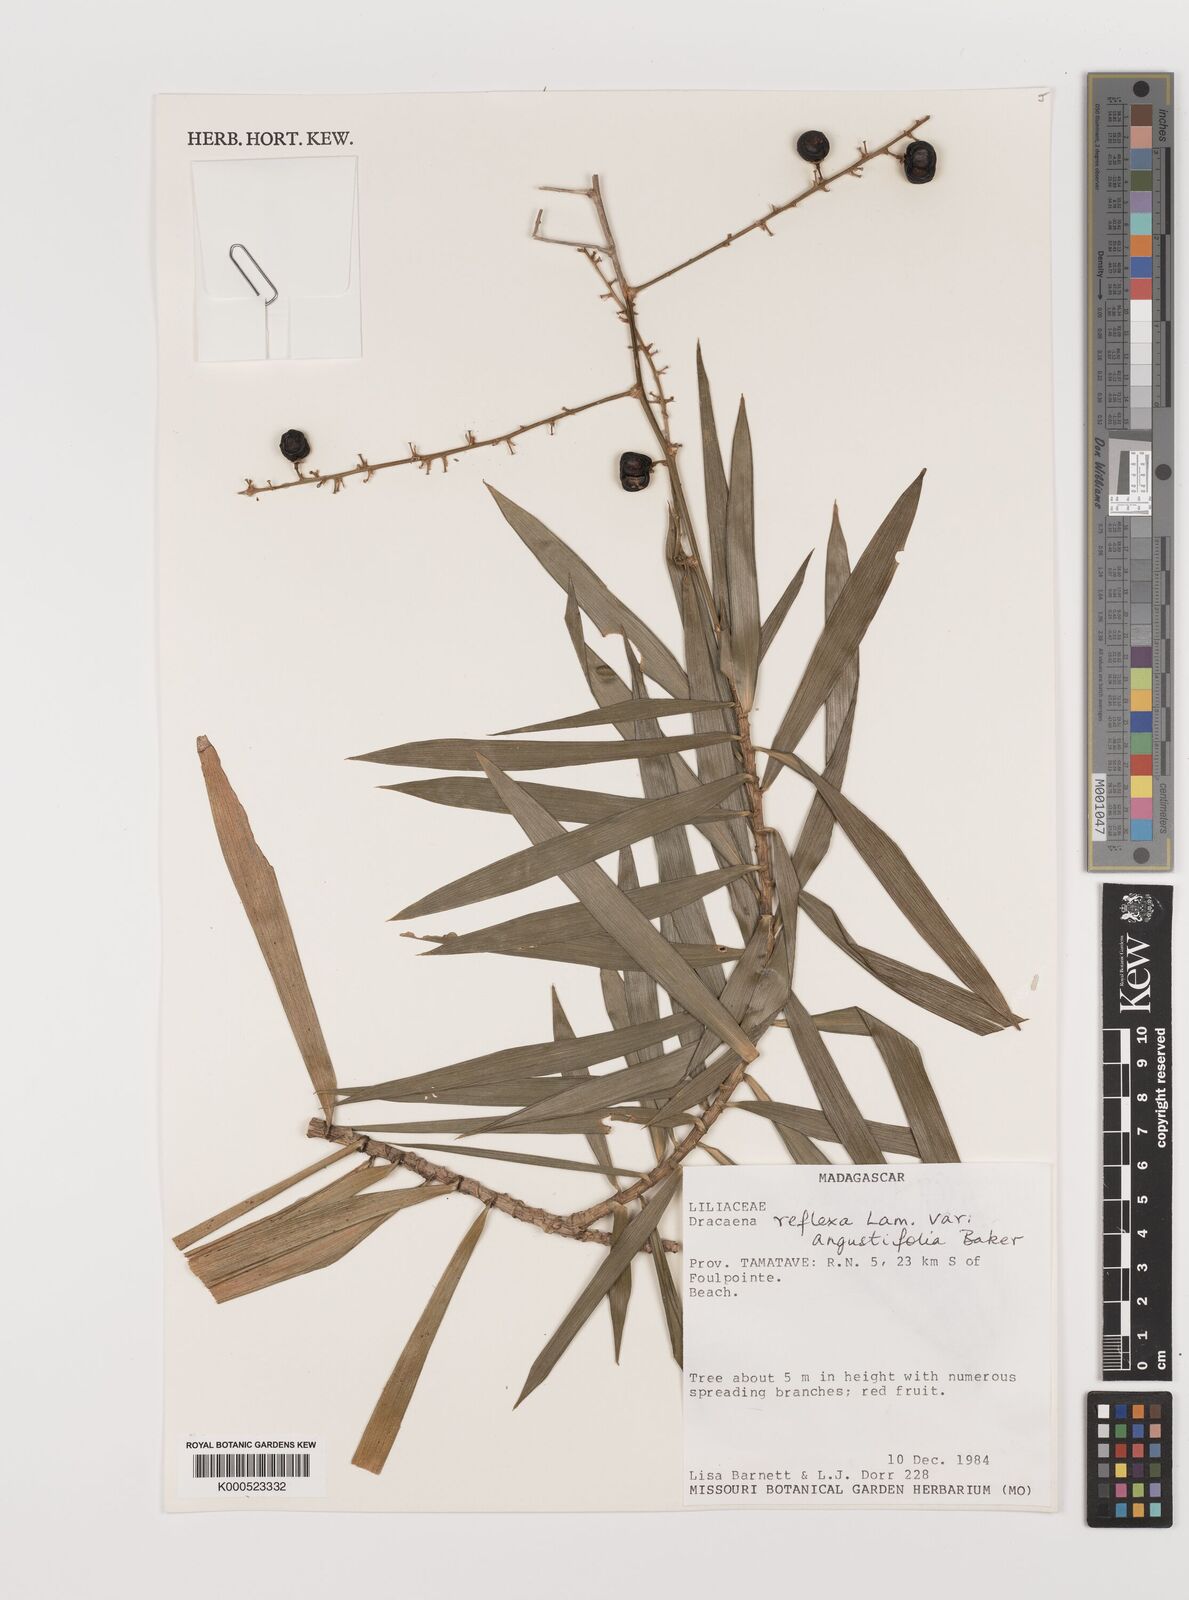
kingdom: Plantae
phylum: Tracheophyta
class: Liliopsida
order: Asparagales
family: Asparagaceae
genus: Dracaena
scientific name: Dracaena reflexa
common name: Song-of-india
